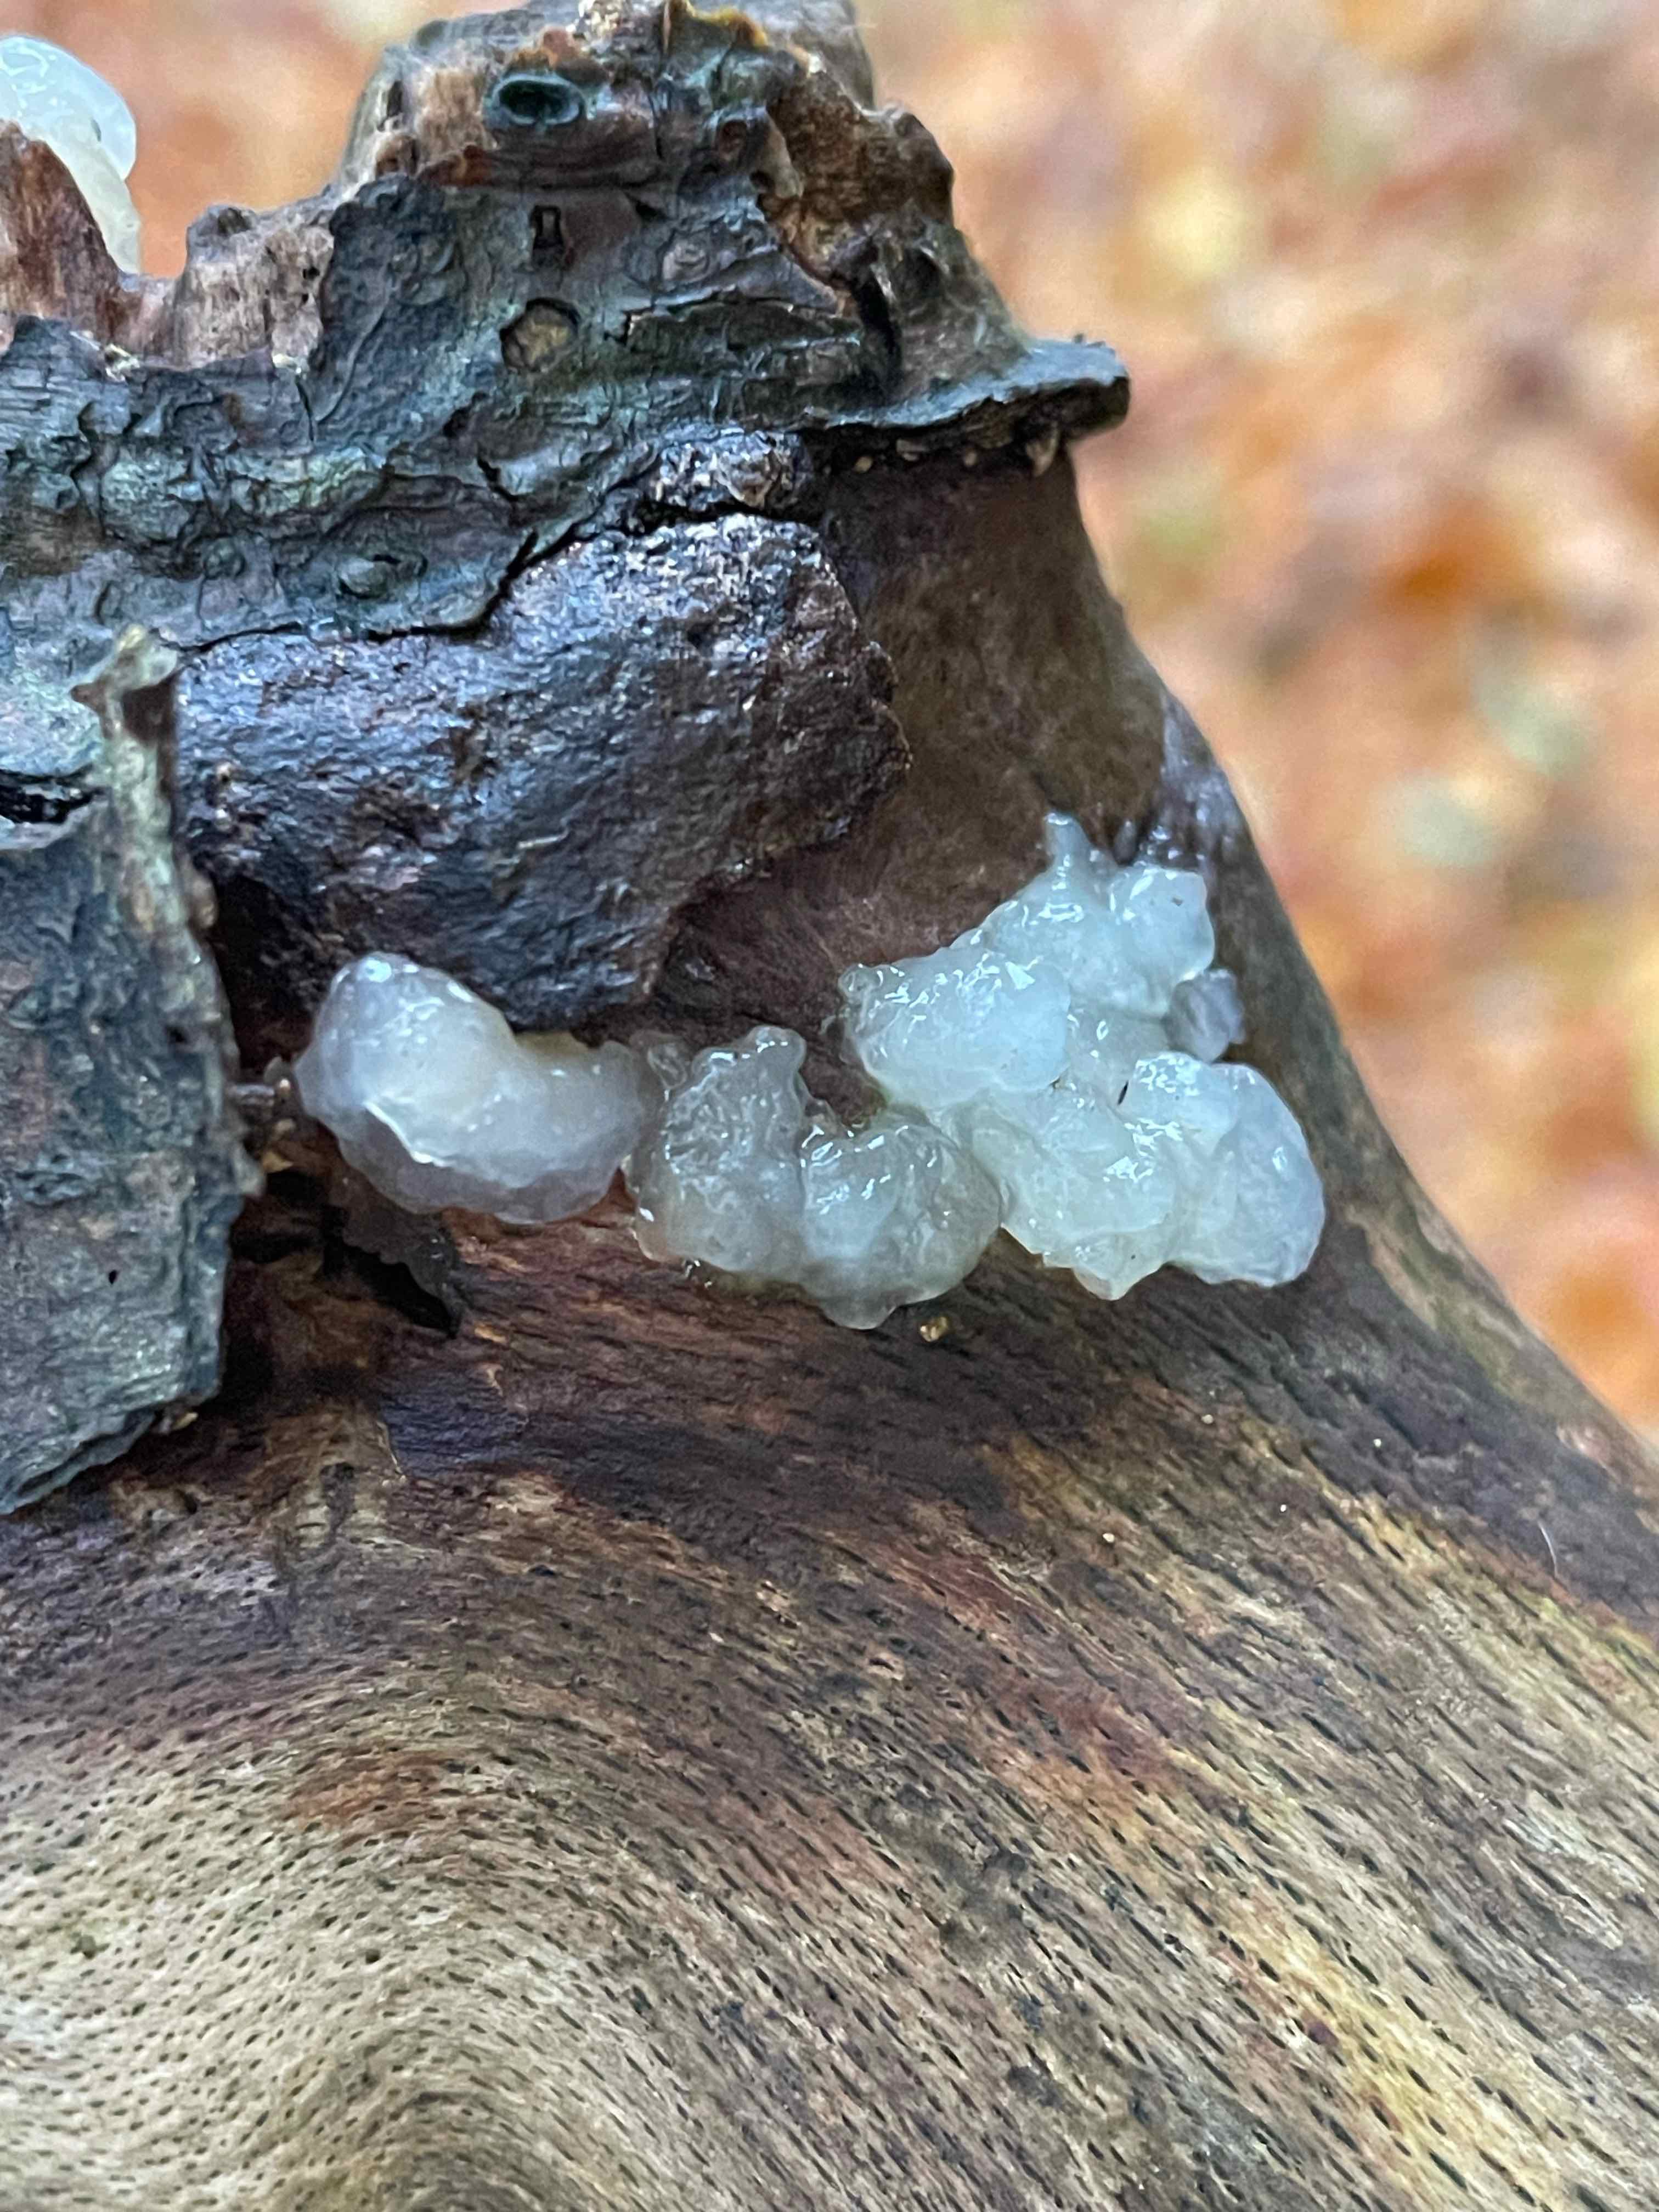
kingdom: Fungi
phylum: Basidiomycota
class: Agaricomycetes
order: Auriculariales
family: Hyaloriaceae
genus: Myxarium
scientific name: Myxarium nucleatum
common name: klar bævretop
